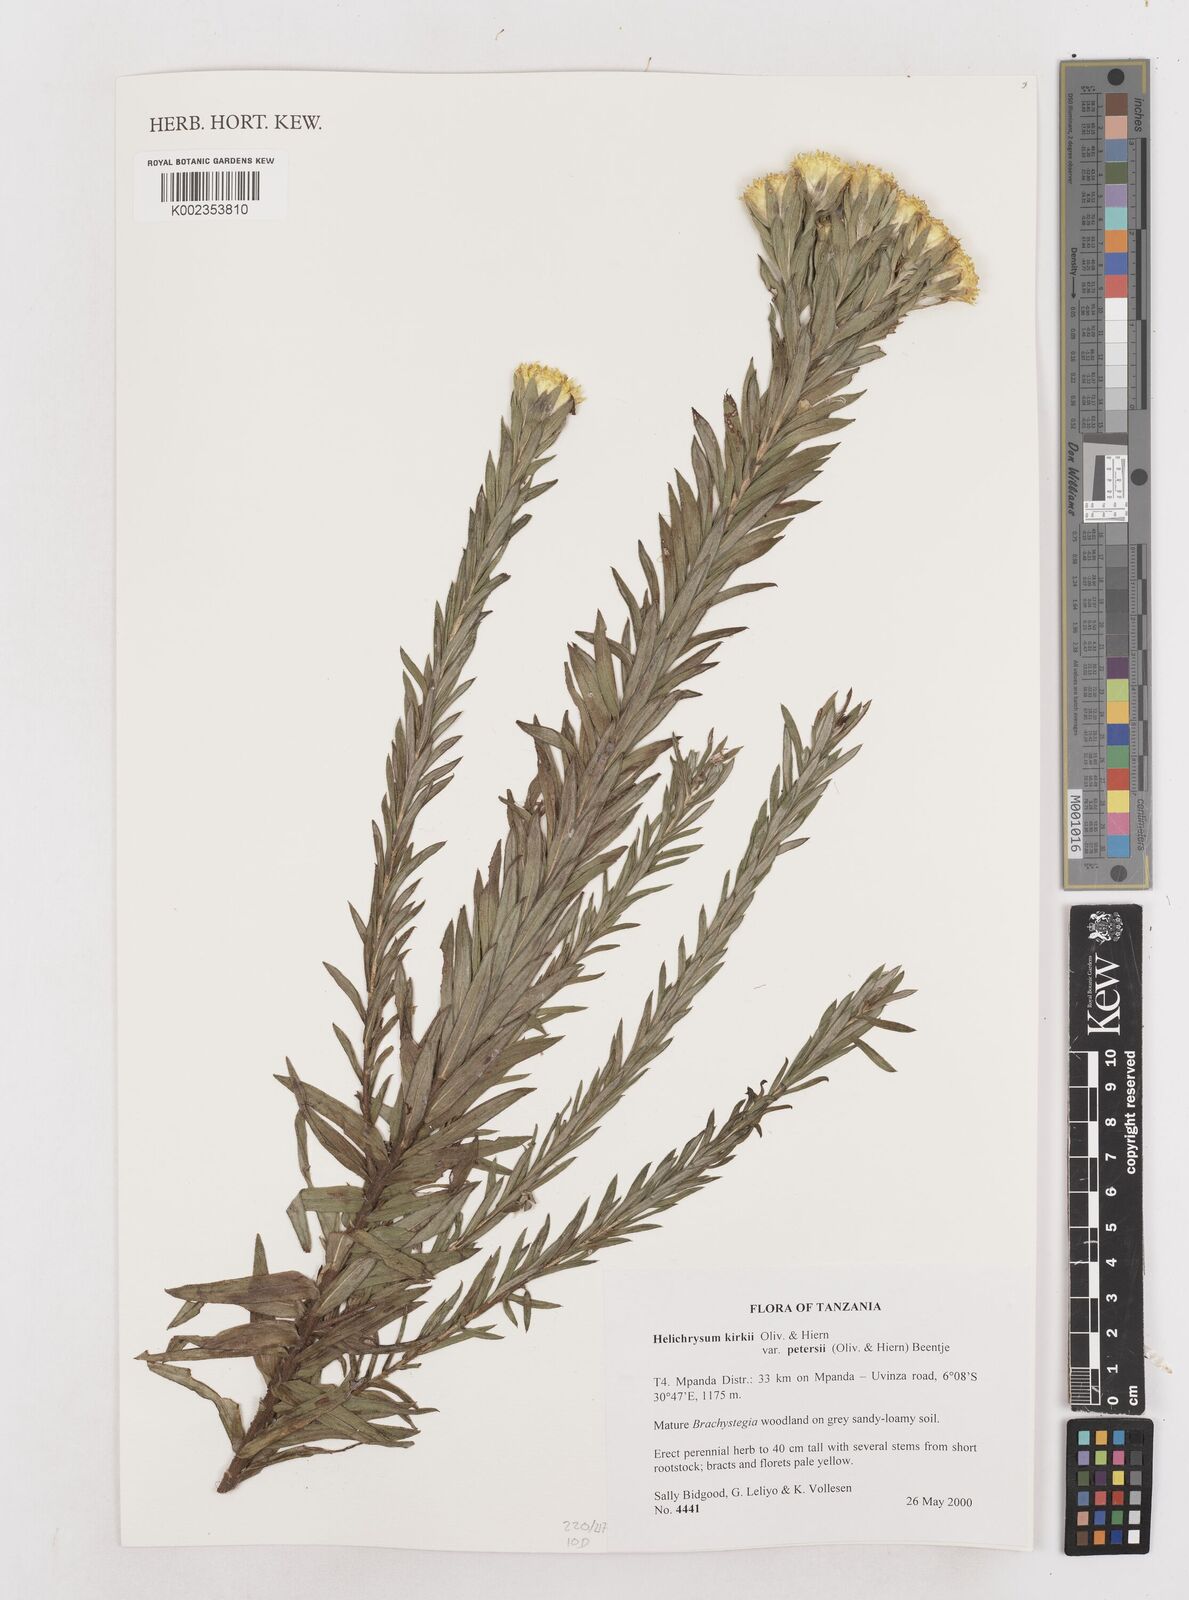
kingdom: Plantae
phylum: Tracheophyta
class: Magnoliopsida
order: Asterales
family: Asteraceae
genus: Helichrysum
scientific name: Helichrysum kirkii
